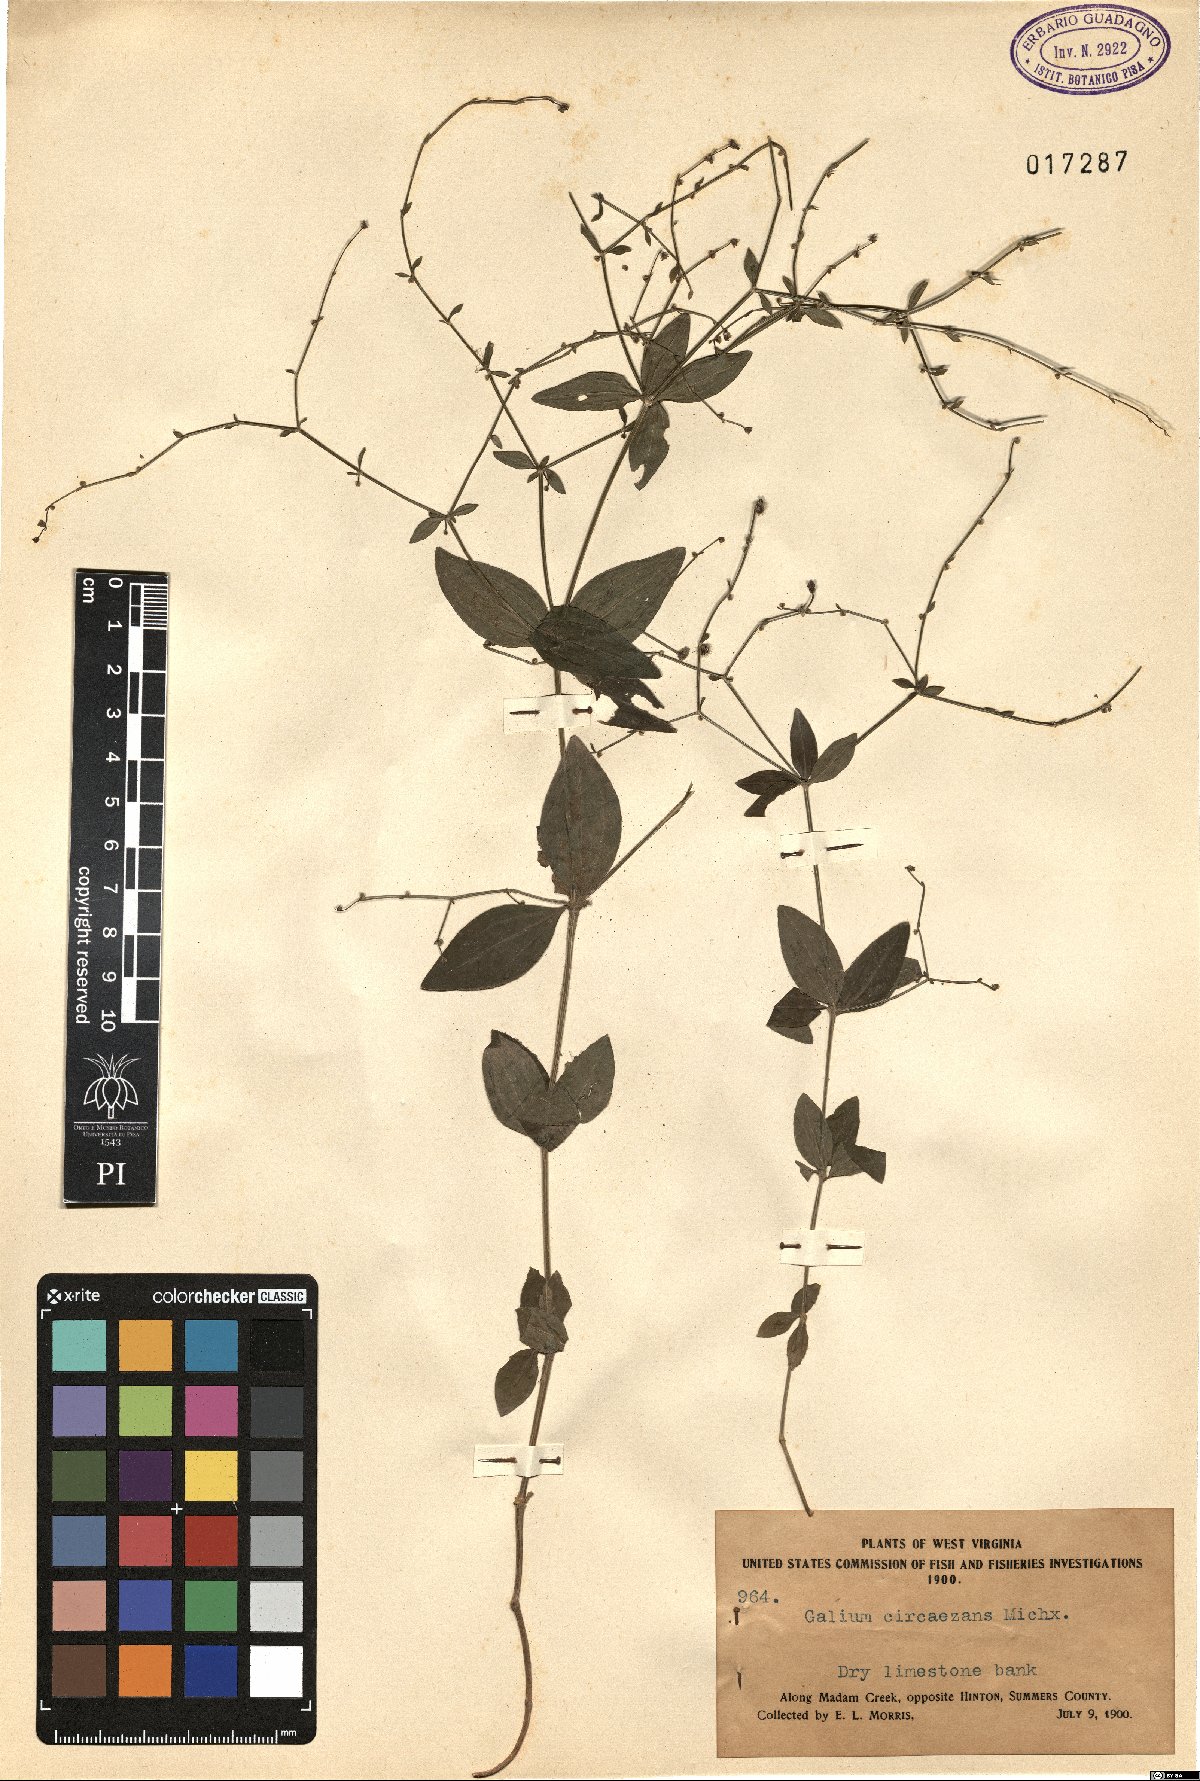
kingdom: Plantae
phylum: Tracheophyta
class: Magnoliopsida
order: Gentianales
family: Rubiaceae
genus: Galium
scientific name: Galium circaezans
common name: Forest bedstraw
